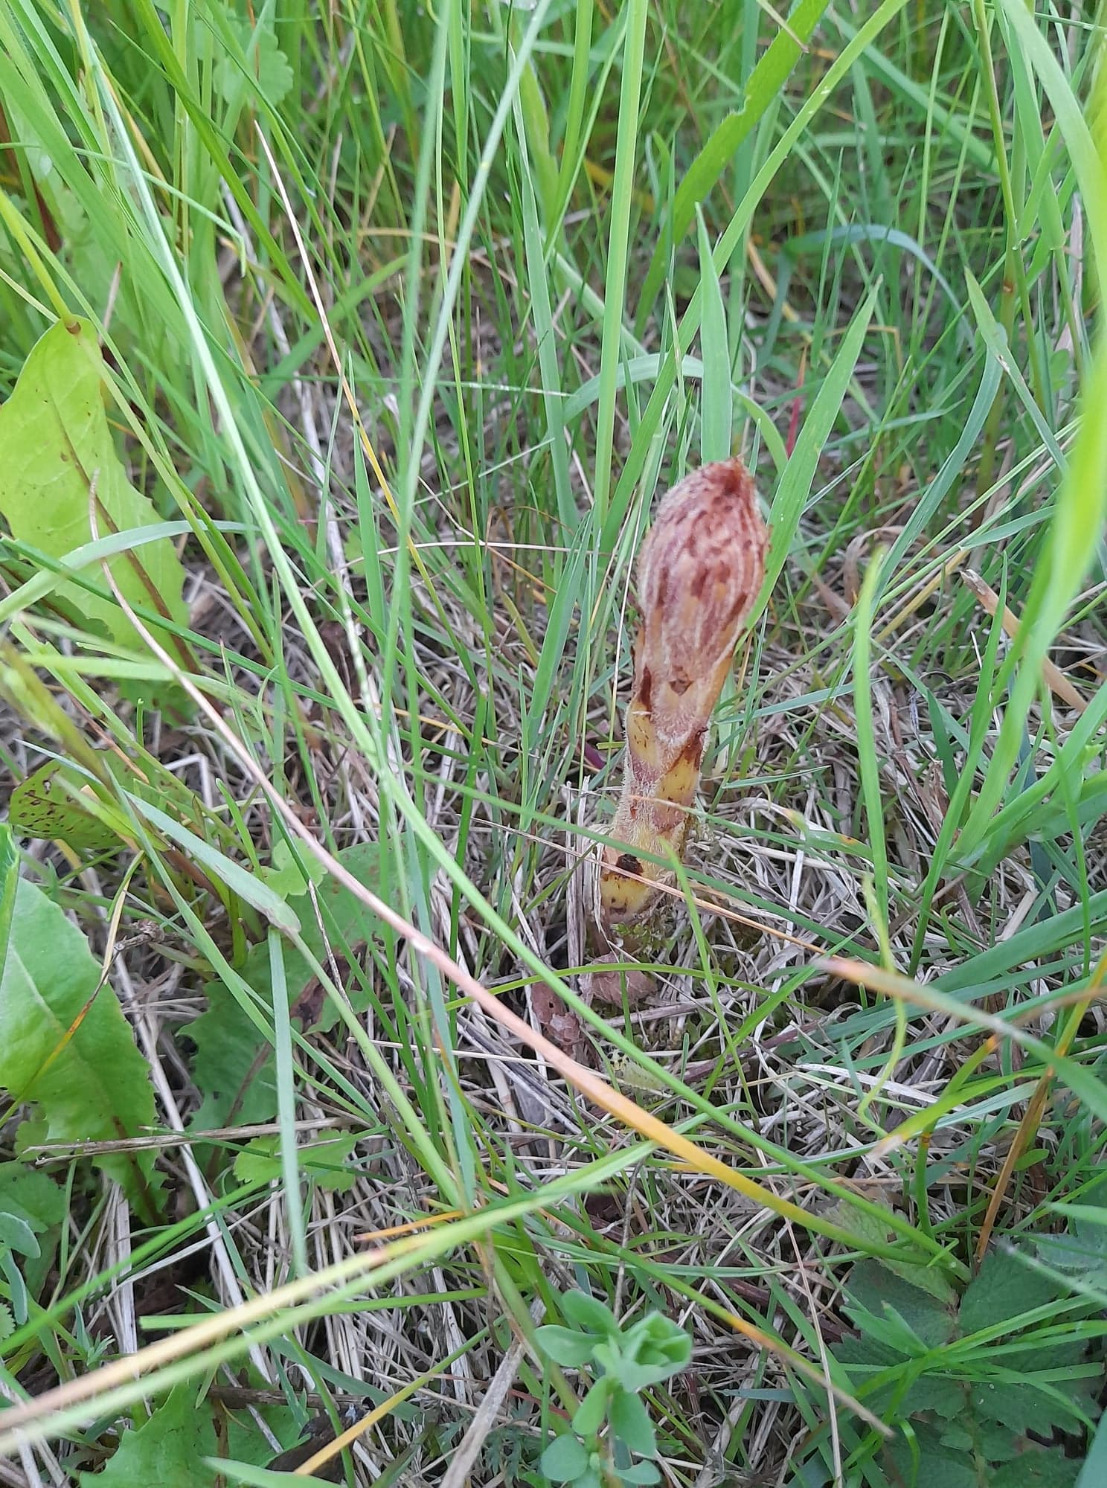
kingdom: Plantae
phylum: Tracheophyta
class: Magnoliopsida
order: Lamiales
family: Orobanchaceae
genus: Orobanche
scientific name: Orobanche elatior
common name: Stor gyvelkvæler
